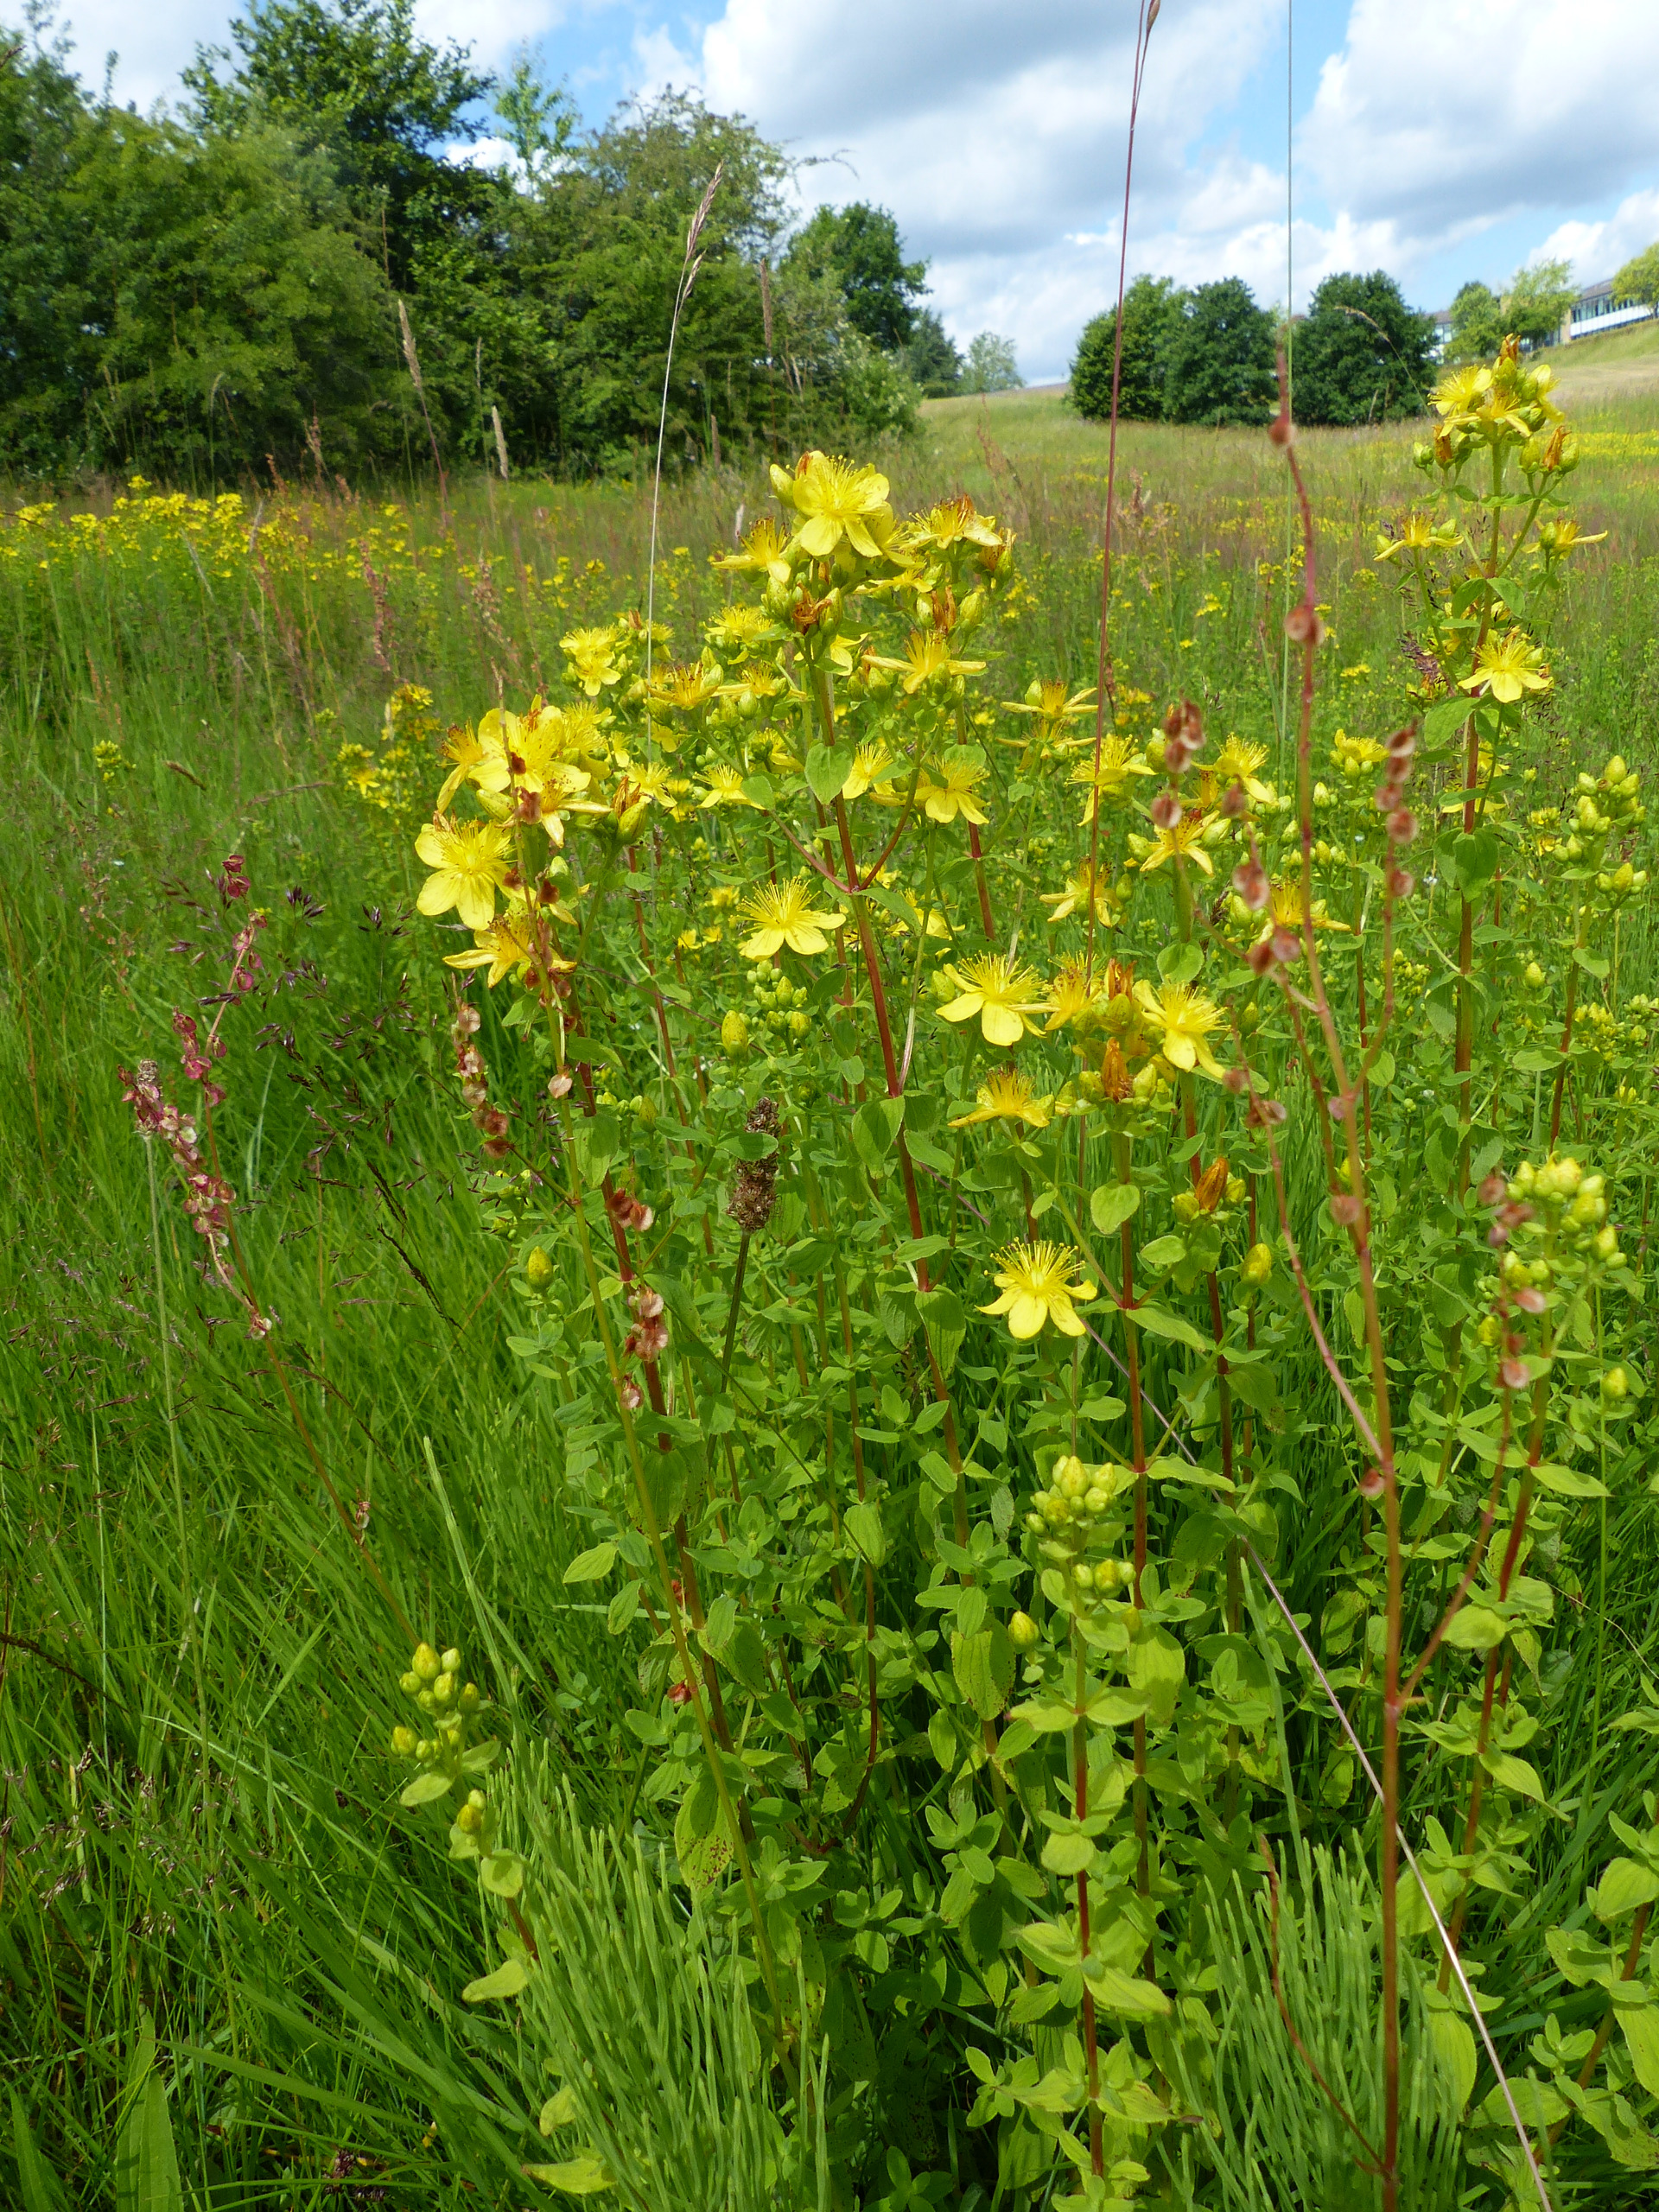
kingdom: Plantae
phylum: Tracheophyta
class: Magnoliopsida
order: Malpighiales
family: Hypericaceae
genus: Hypericum
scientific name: Hypericum maculatum
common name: Kantet perikon
